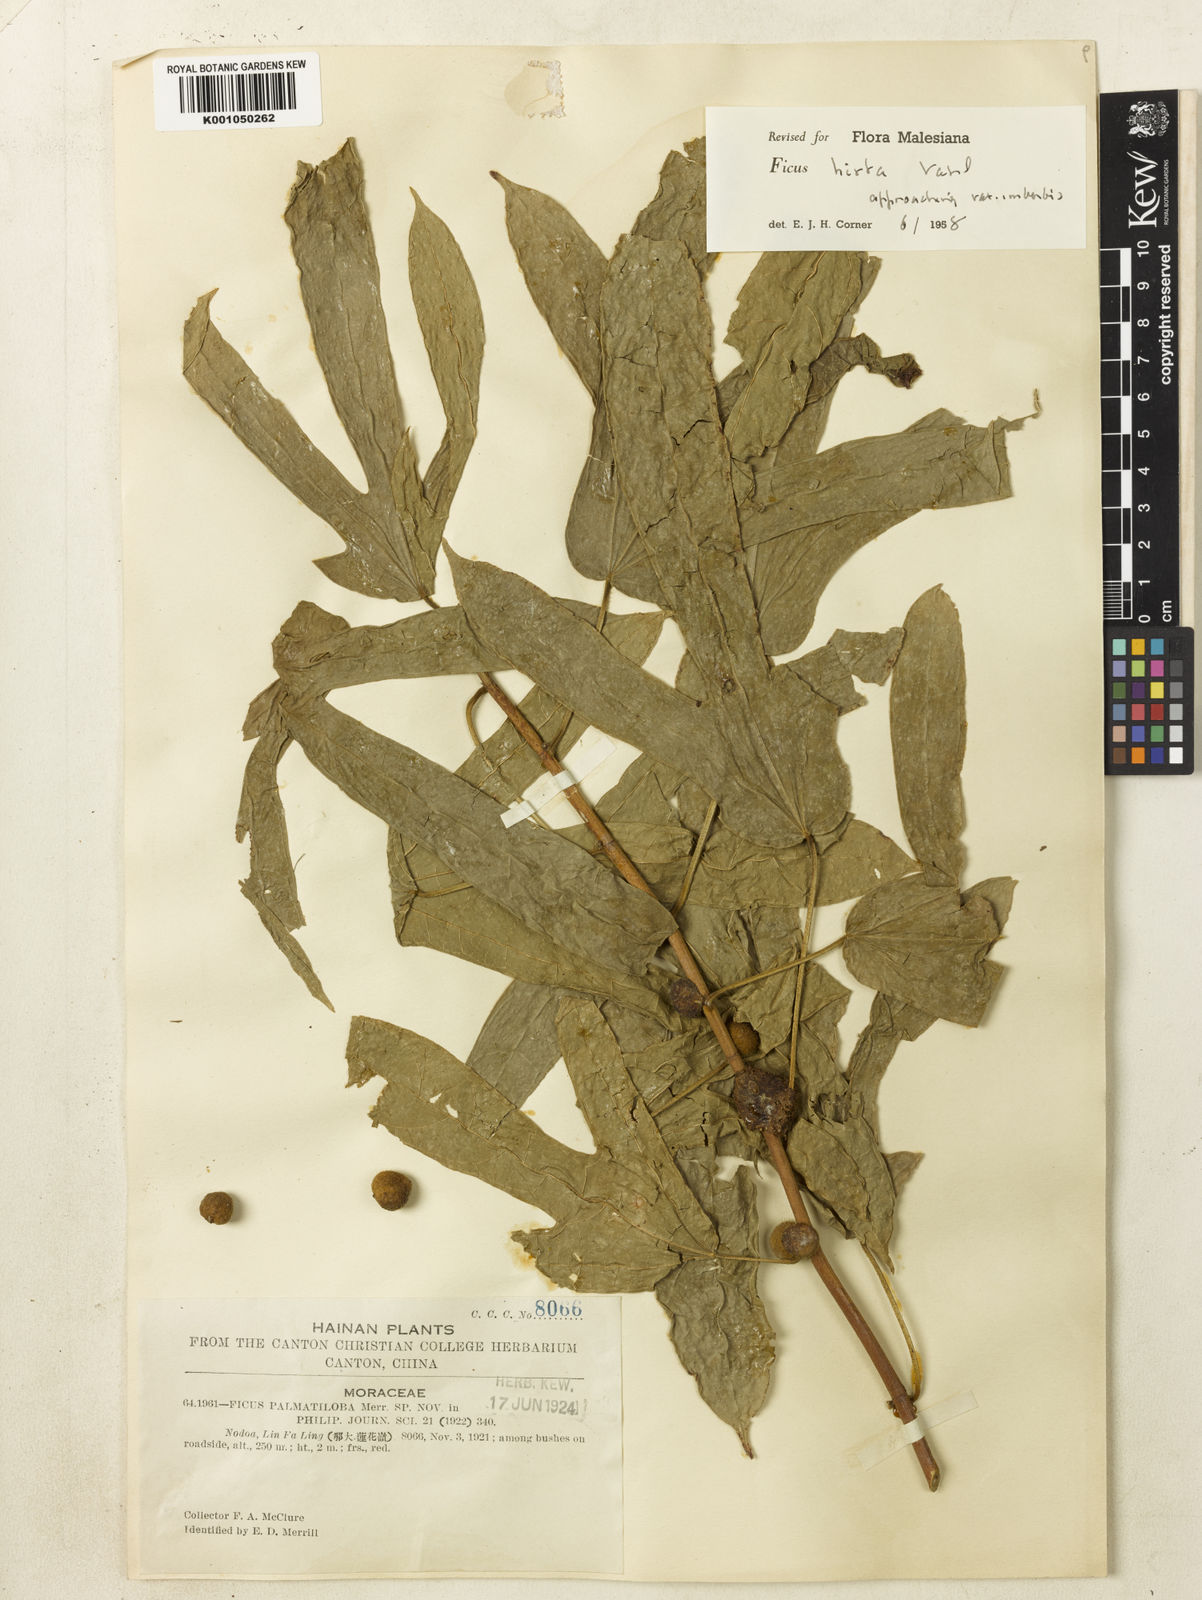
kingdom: Plantae
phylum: Tracheophyta
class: Magnoliopsida
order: Rosales
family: Moraceae
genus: Ficus
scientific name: Ficus simplicissima
